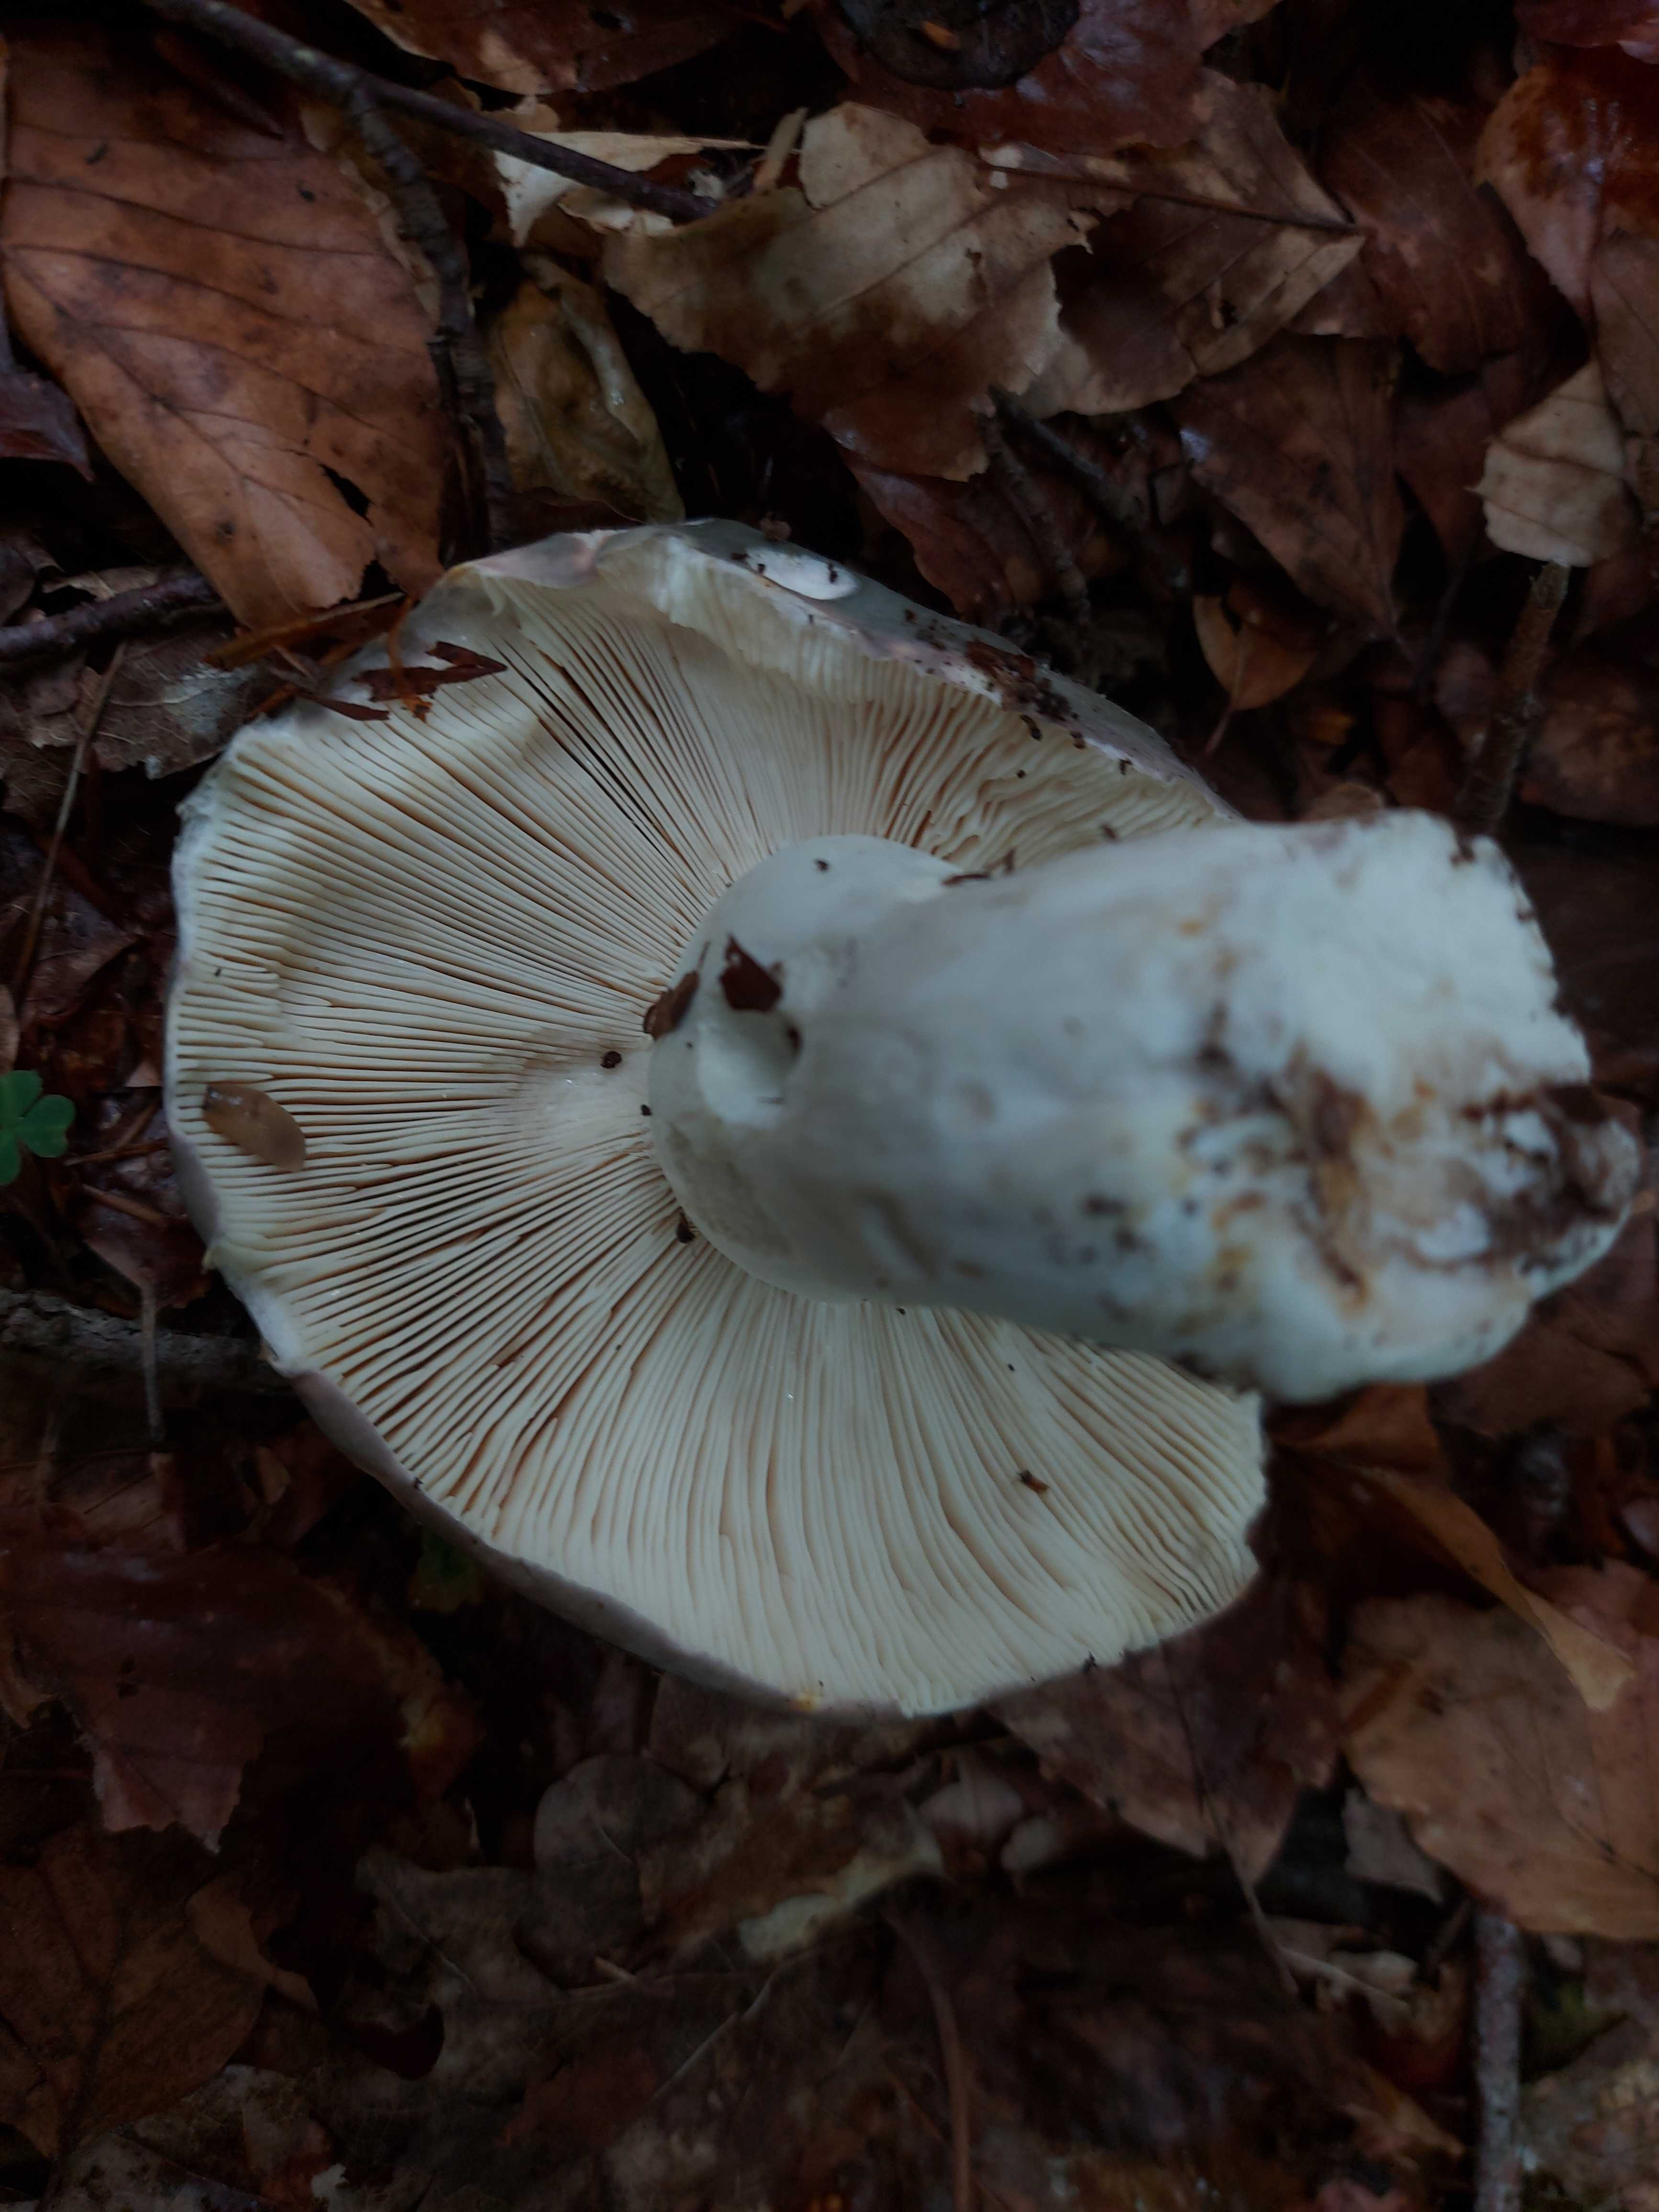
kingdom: Fungi
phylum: Basidiomycota
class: Agaricomycetes
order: Russulales
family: Russulaceae
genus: Russula
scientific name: Russula cyanoxantha
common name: broget skørhat
